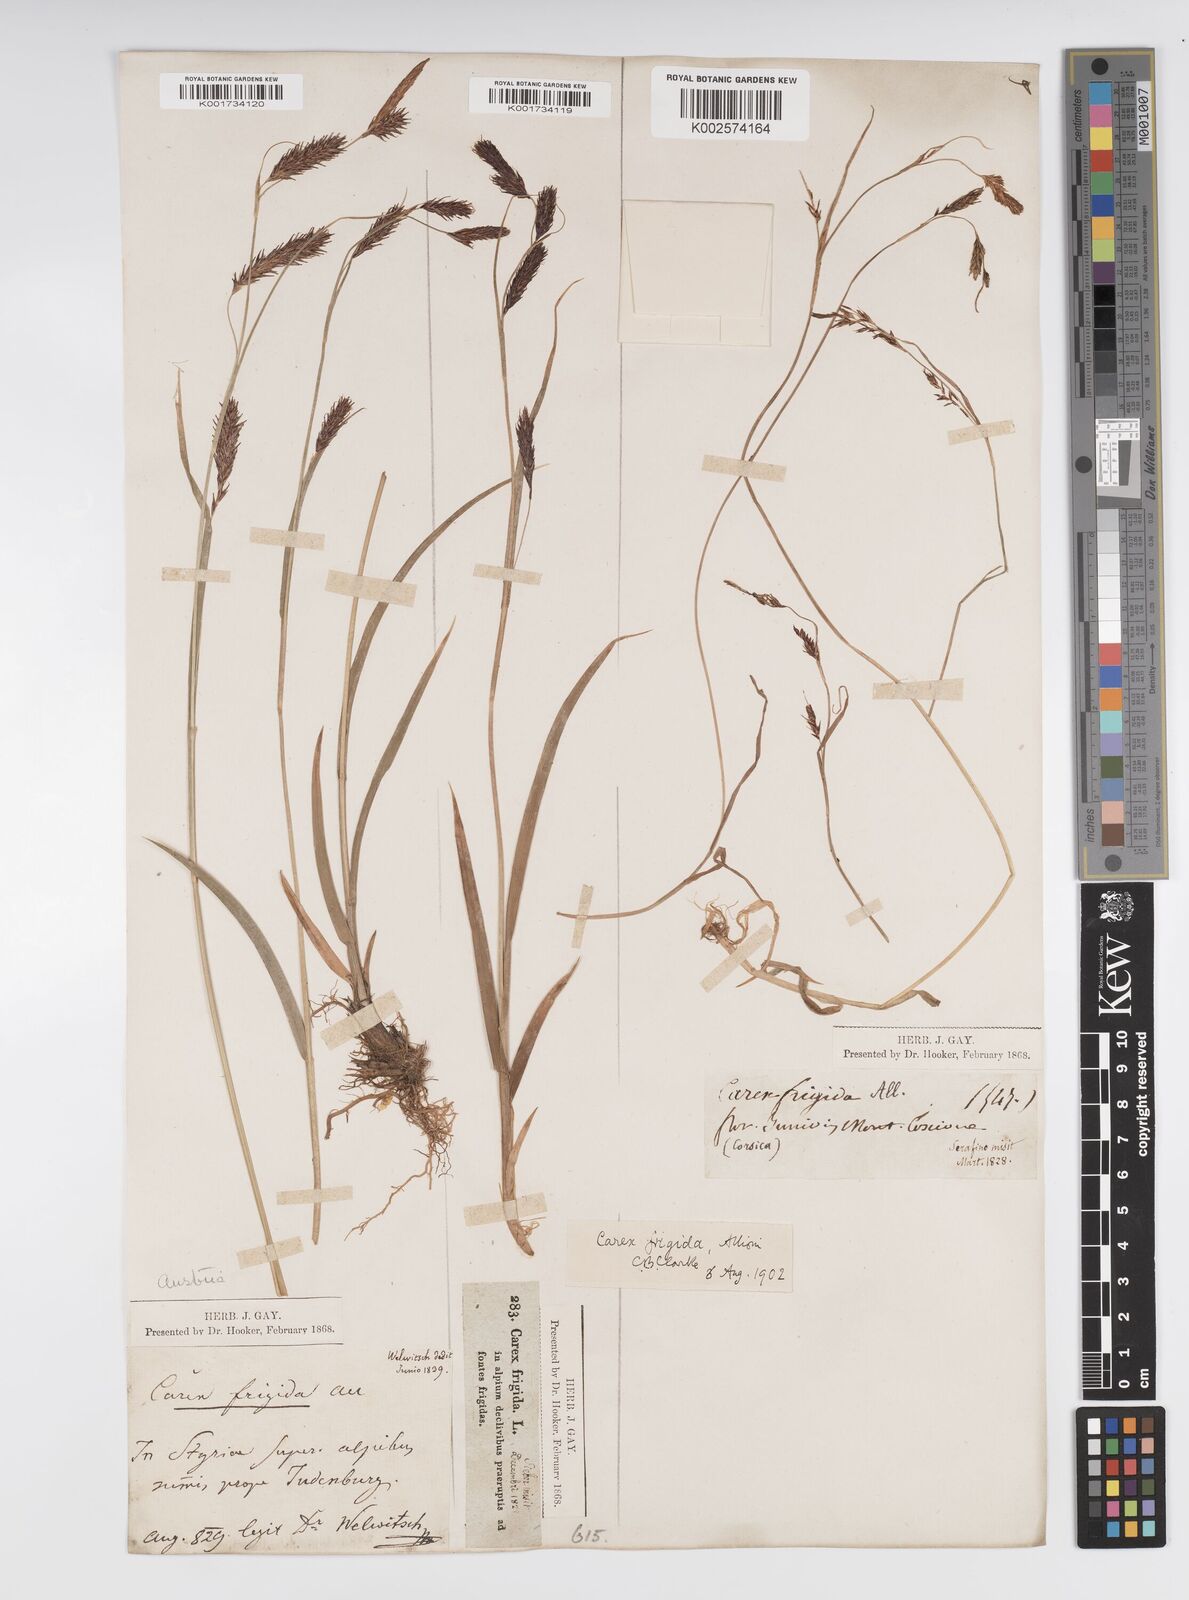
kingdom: Plantae
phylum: Tracheophyta
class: Liliopsida
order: Poales
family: Cyperaceae
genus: Carex
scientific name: Carex frigida
